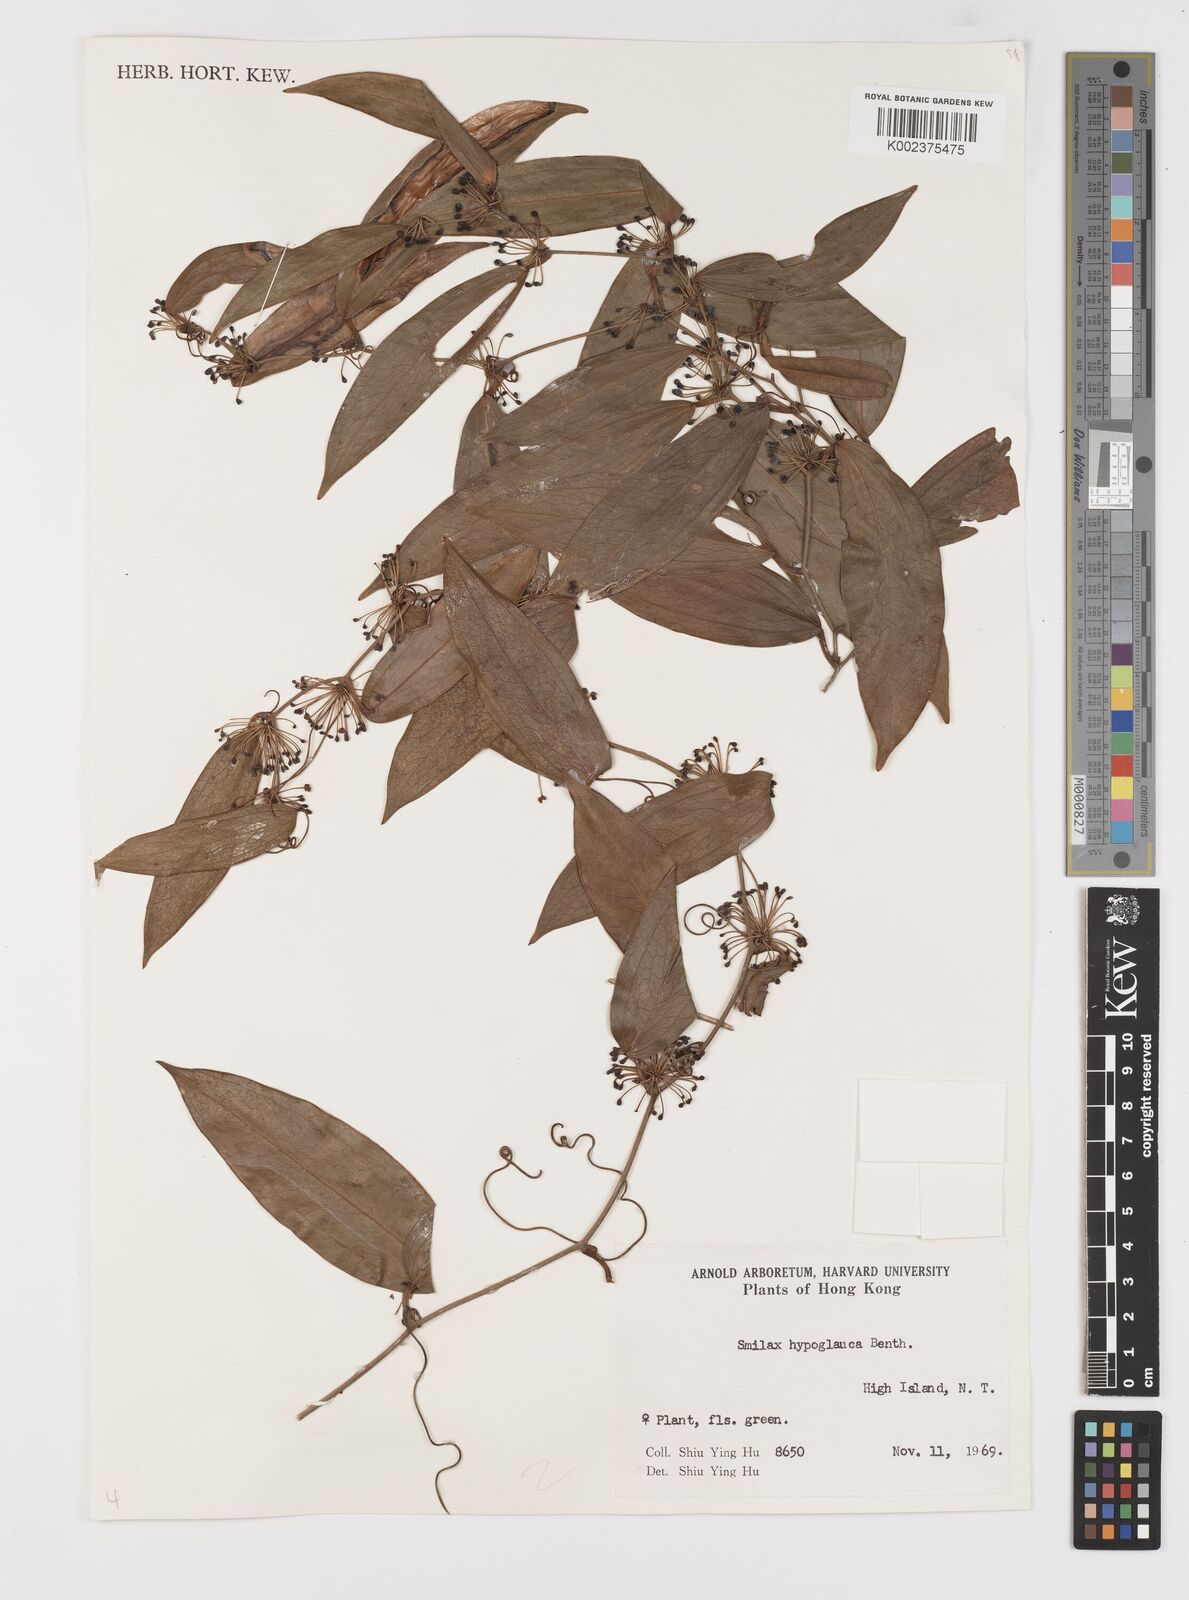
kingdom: Plantae
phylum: Tracheophyta
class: Liliopsida
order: Liliales
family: Smilacaceae
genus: Smilax
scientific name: Smilax hypoglauca
